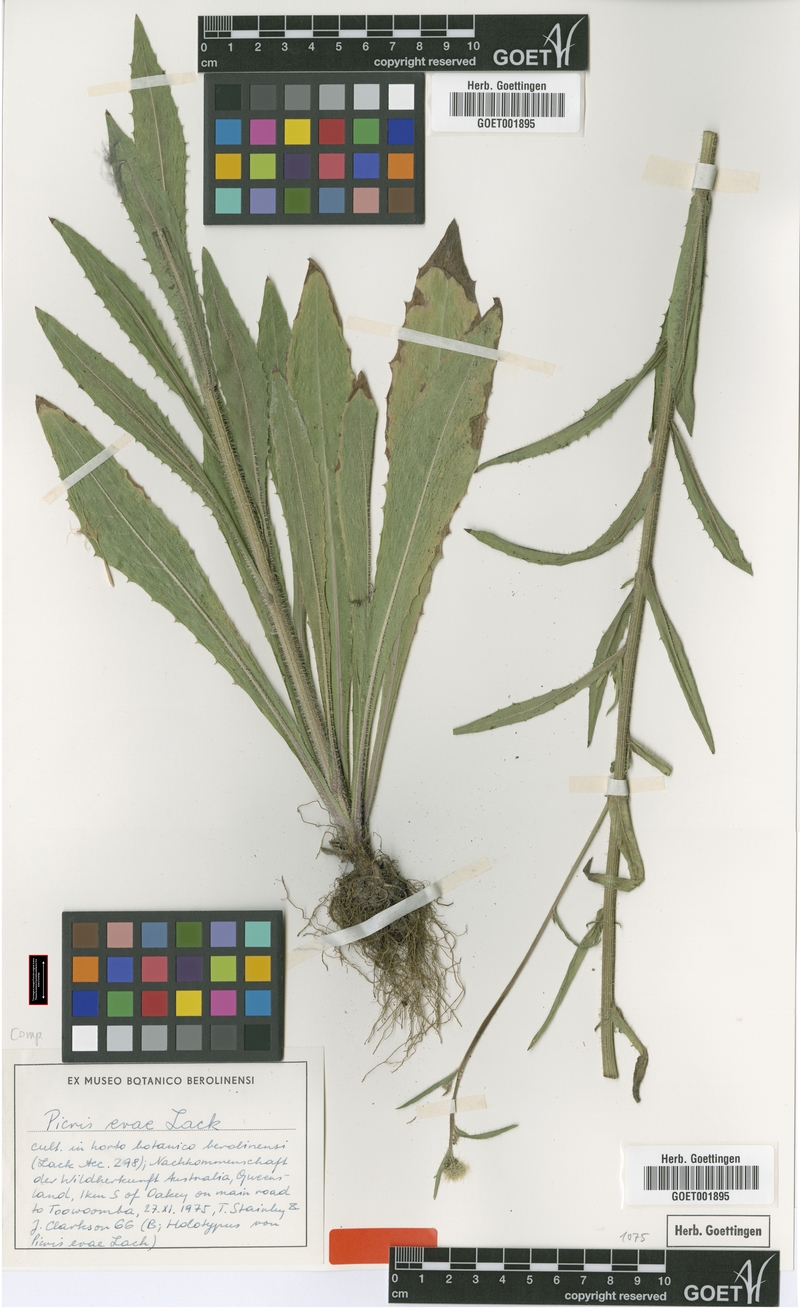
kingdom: Plantae
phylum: Tracheophyta
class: Magnoliopsida
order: Asterales
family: Asteraceae
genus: Picris
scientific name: Picris evae
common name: Hawkweed
